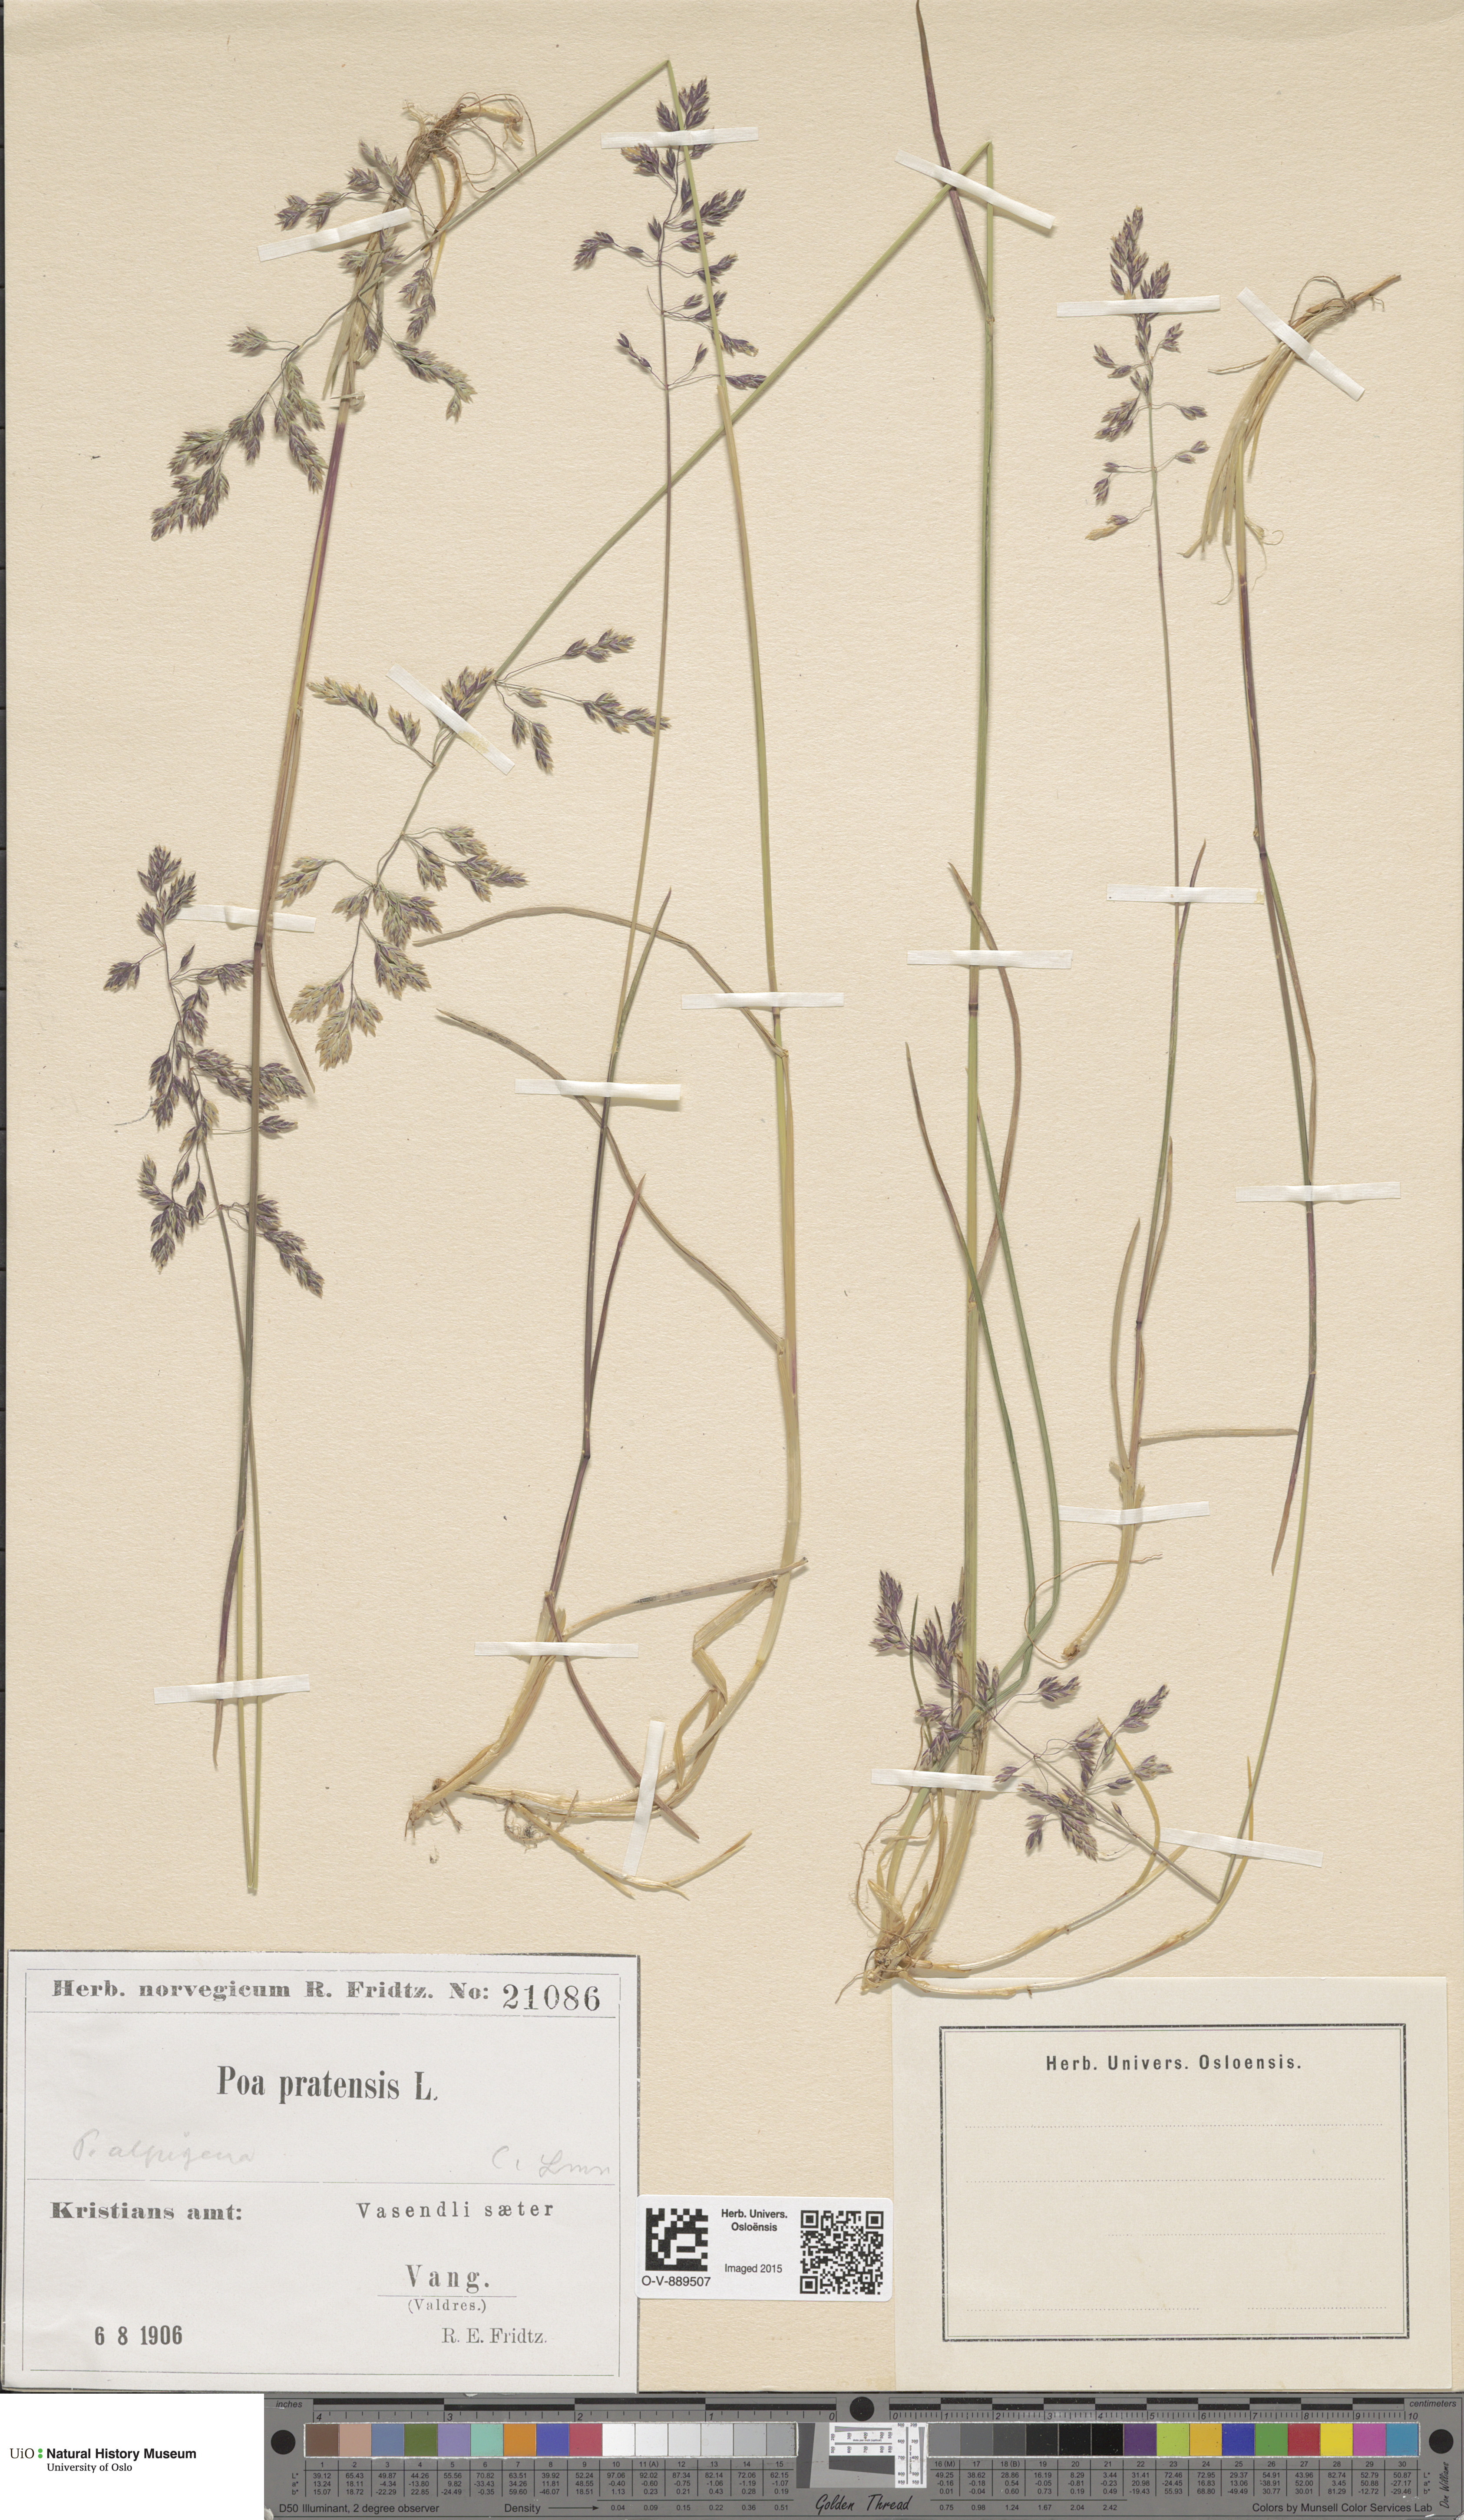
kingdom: Plantae
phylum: Tracheophyta
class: Liliopsida
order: Poales
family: Poaceae
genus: Poa
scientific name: Poa alpigena
